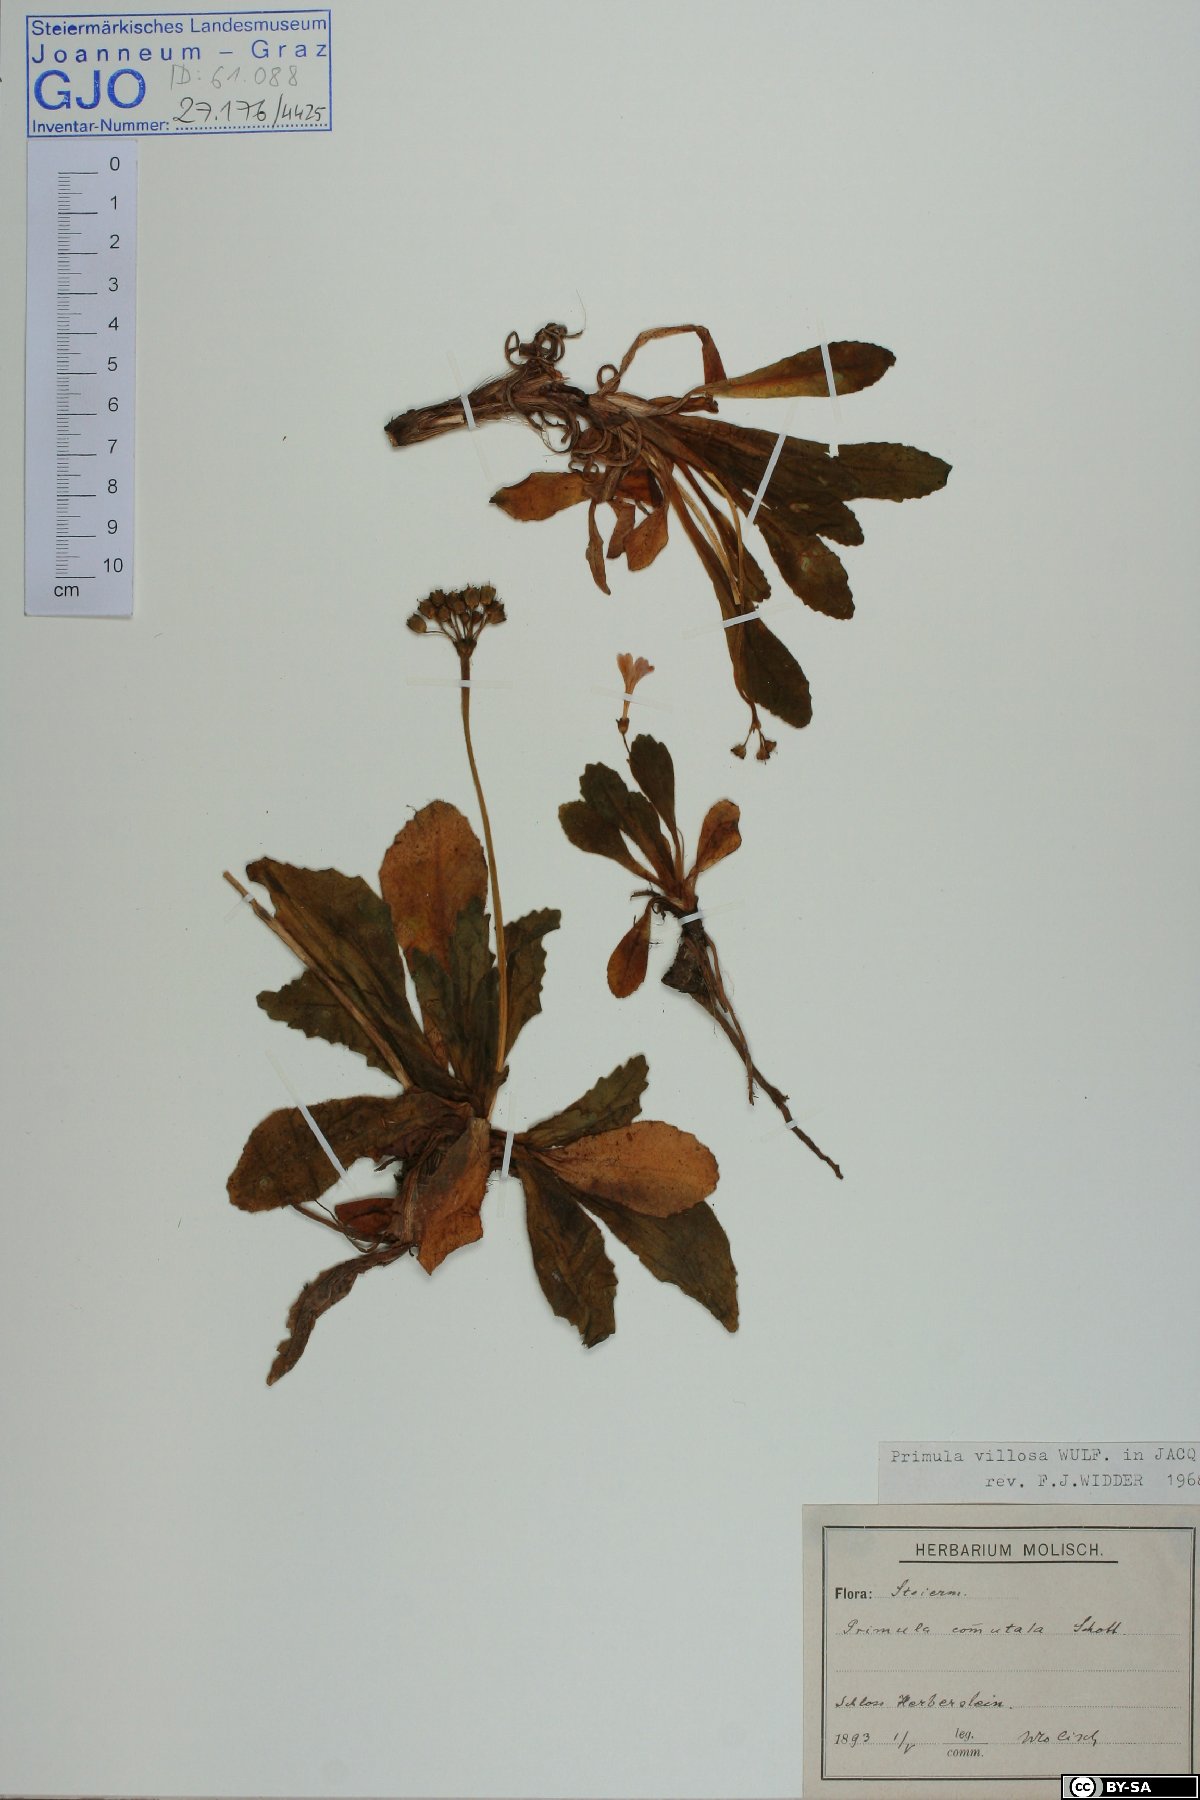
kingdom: Plantae
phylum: Tracheophyta
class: Magnoliopsida
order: Ericales
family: Primulaceae
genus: Primula
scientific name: Primula villosa
